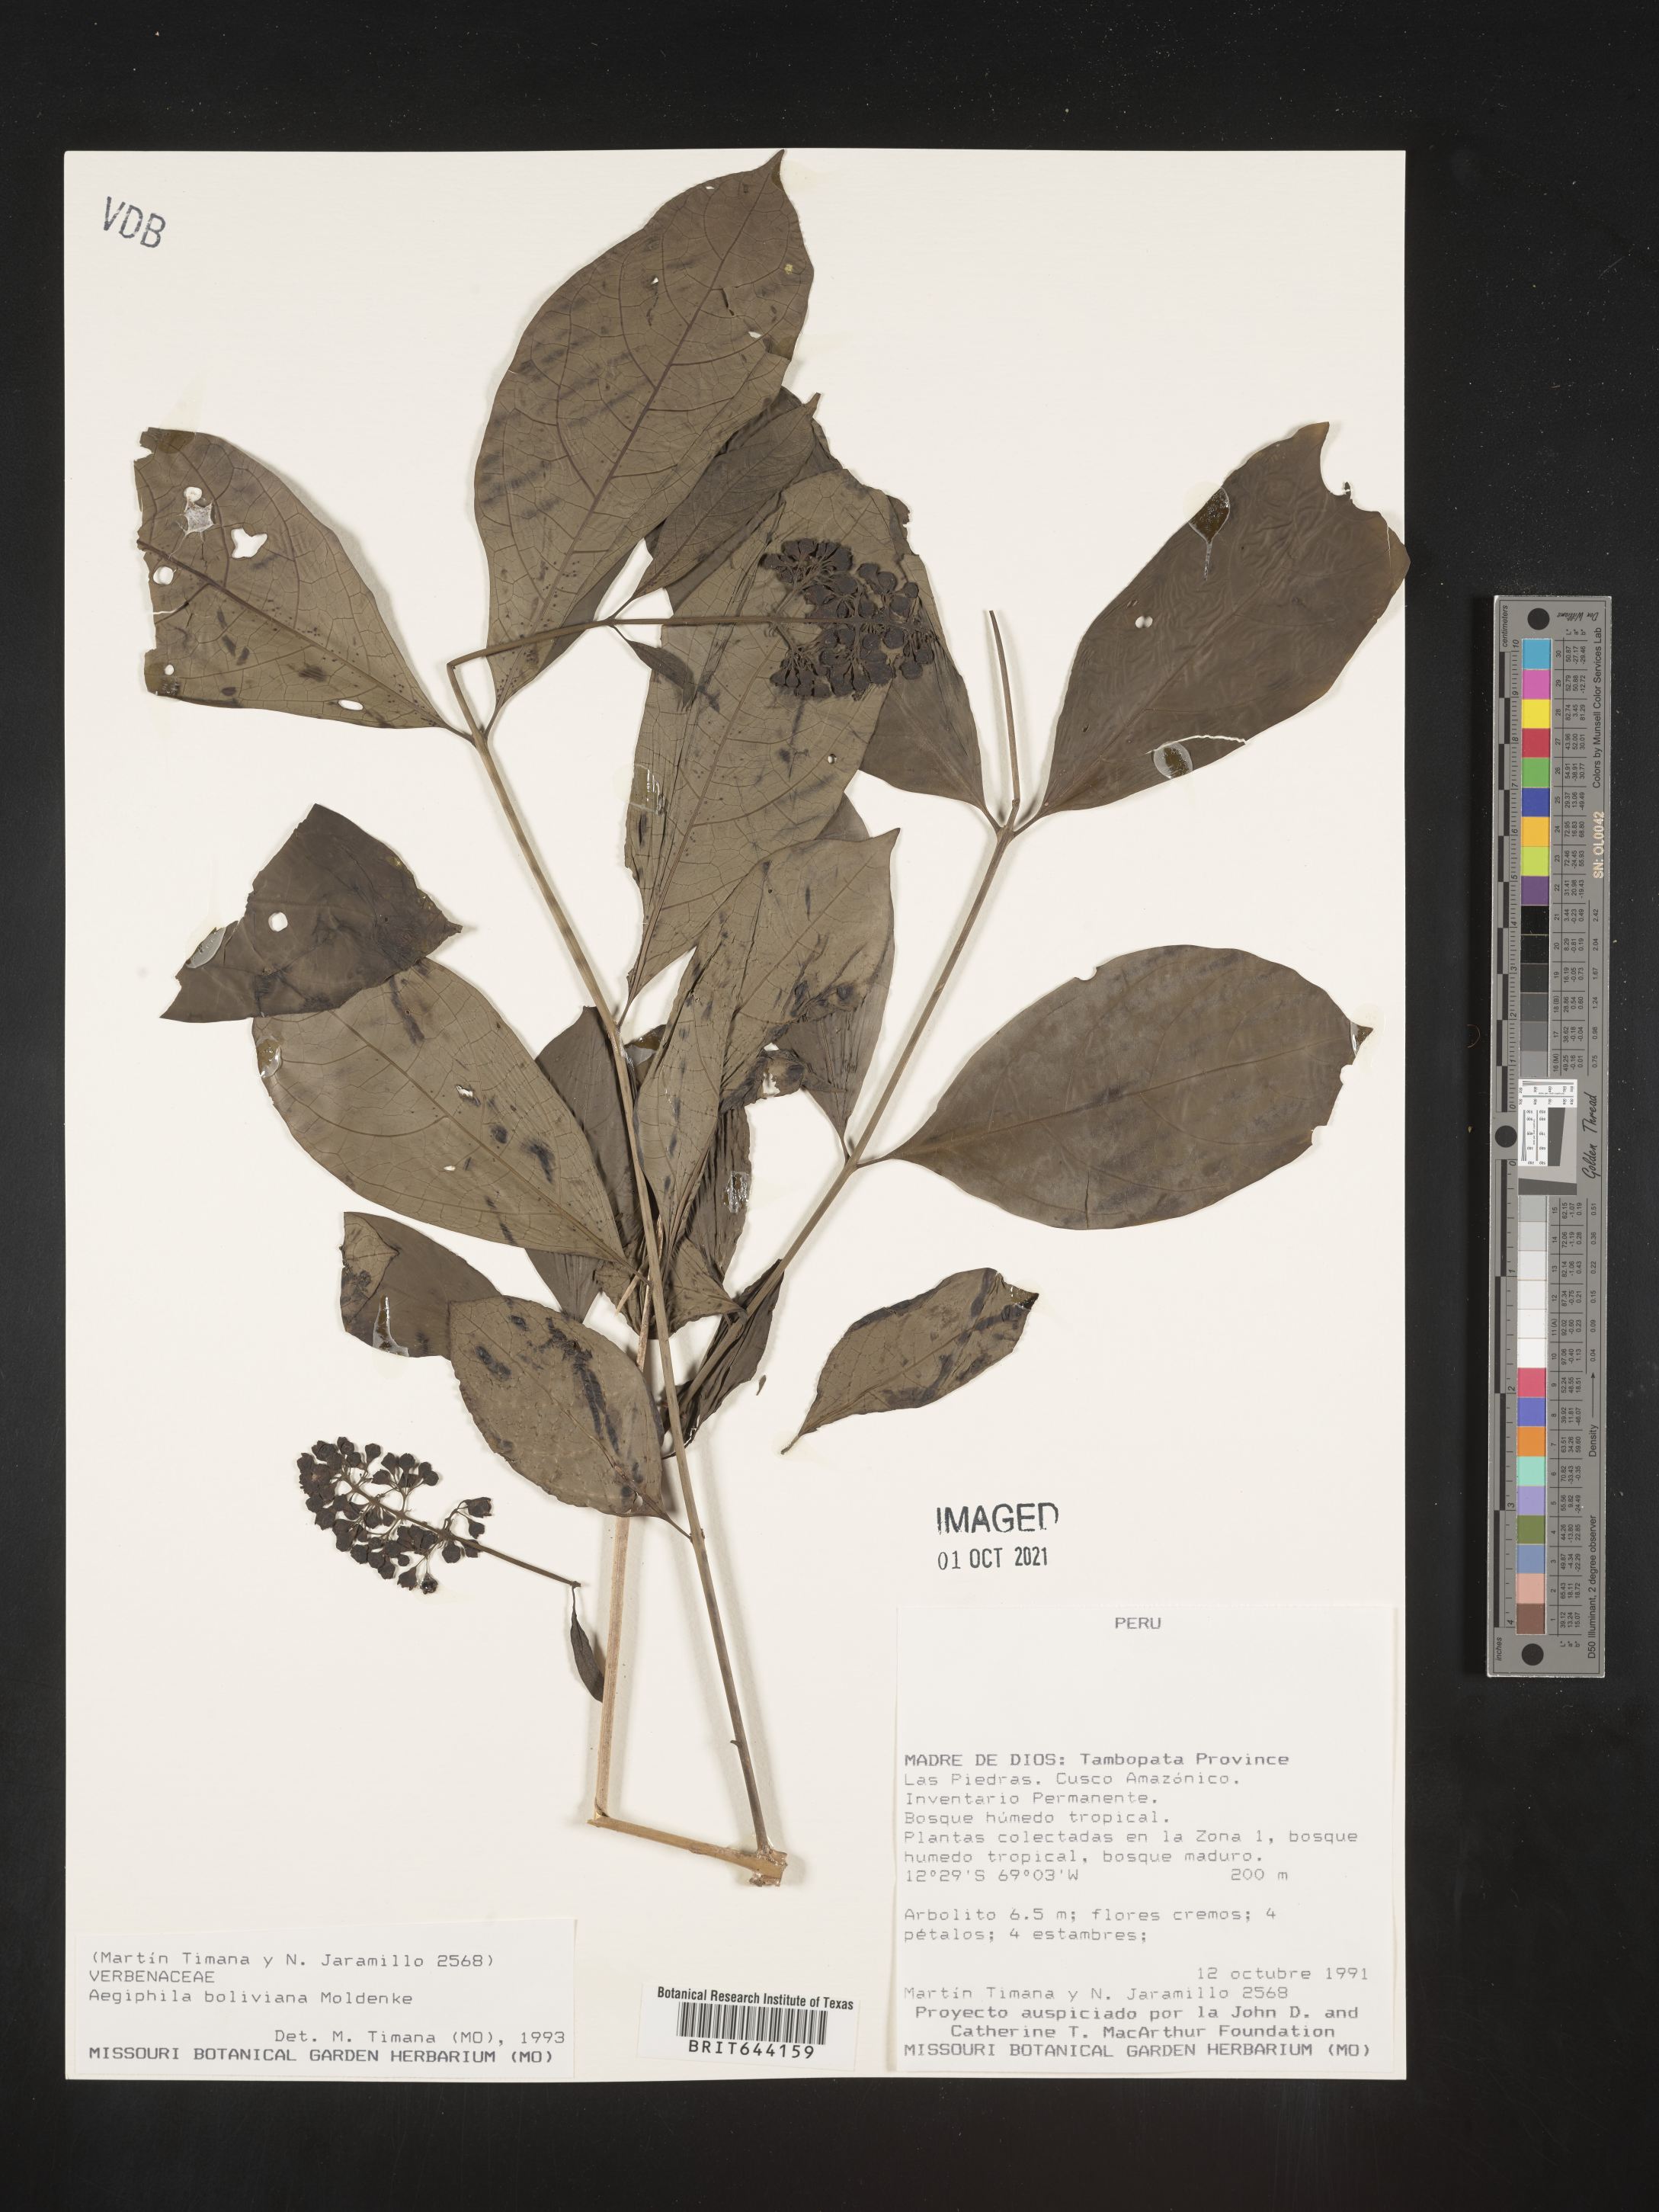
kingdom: Plantae
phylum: Tracheophyta
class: Magnoliopsida
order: Lamiales
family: Lamiaceae
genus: Aegiphila
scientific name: Aegiphila
